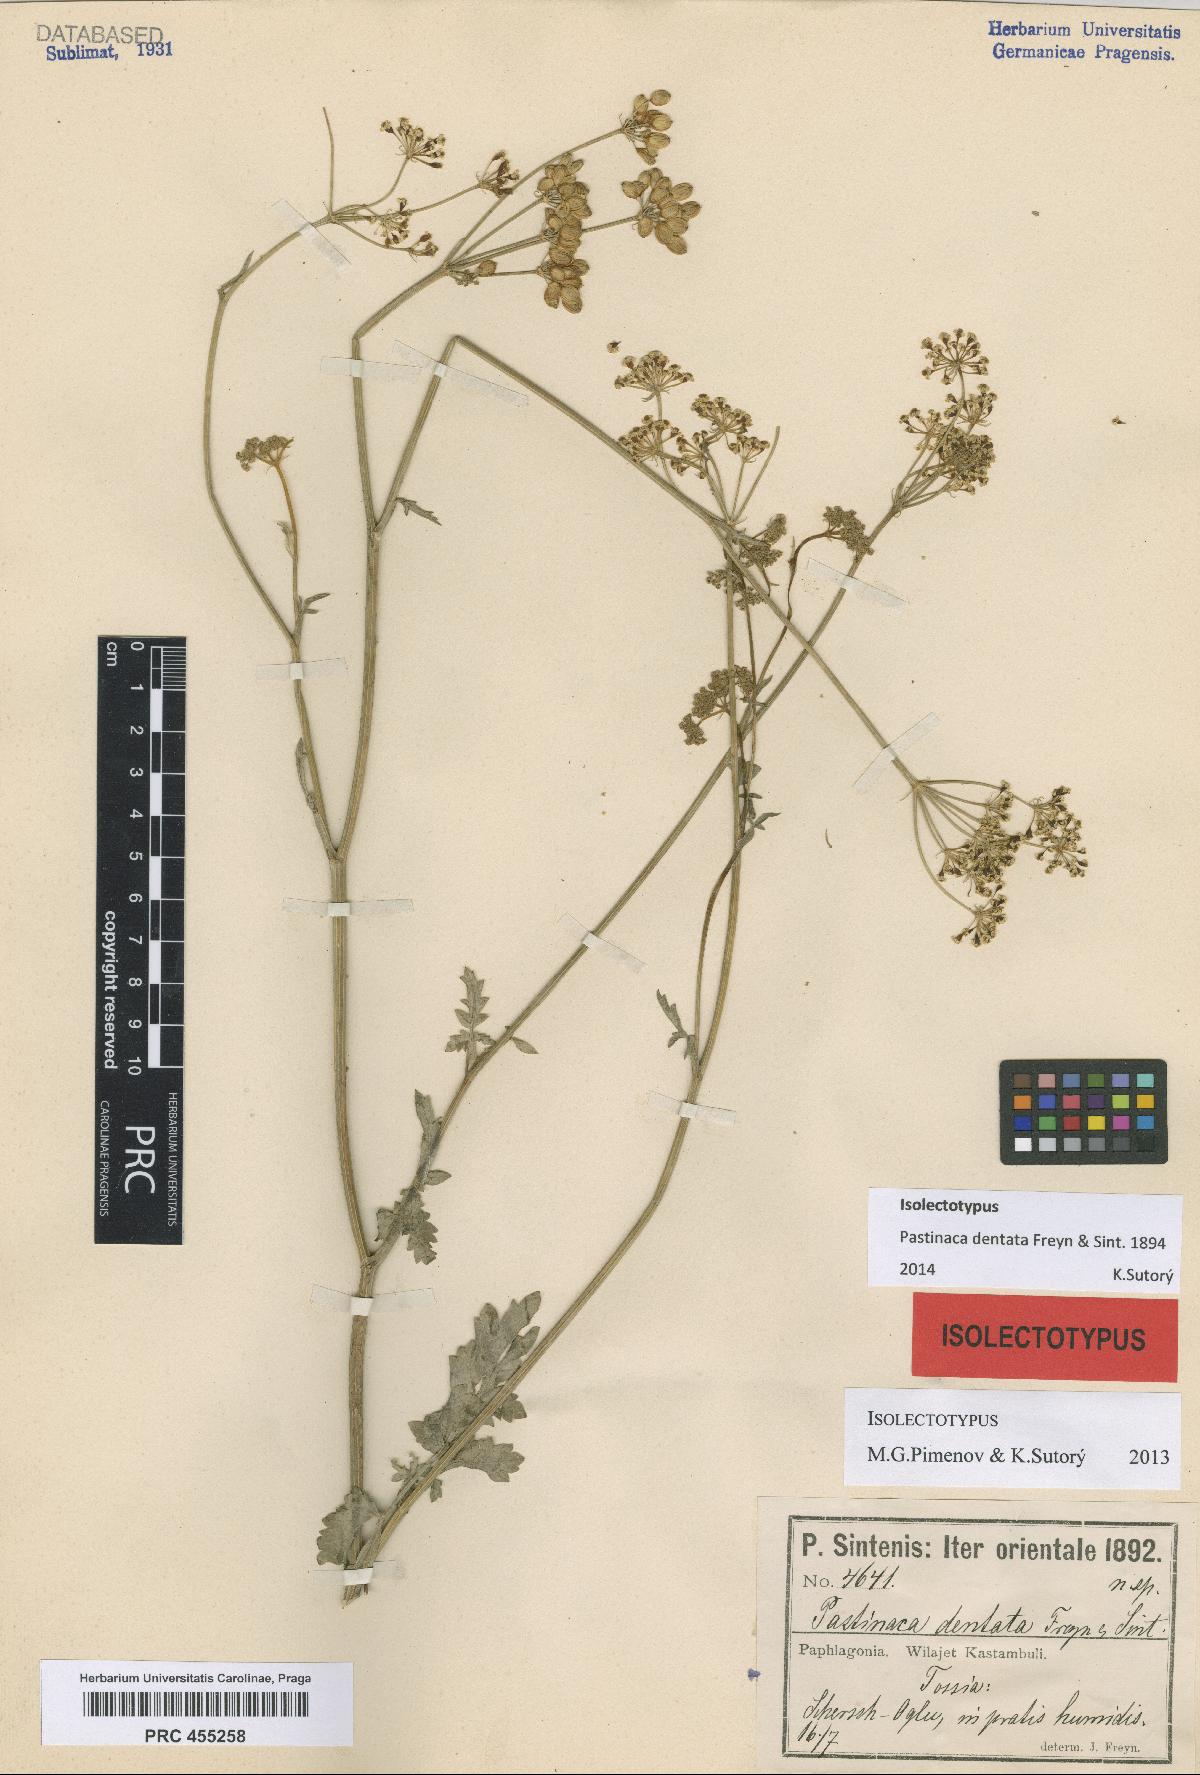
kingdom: Plantae
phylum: Tracheophyta
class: Magnoliopsida
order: Apiales
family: Apiaceae
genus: Pastinaca
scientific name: Pastinaca armena
